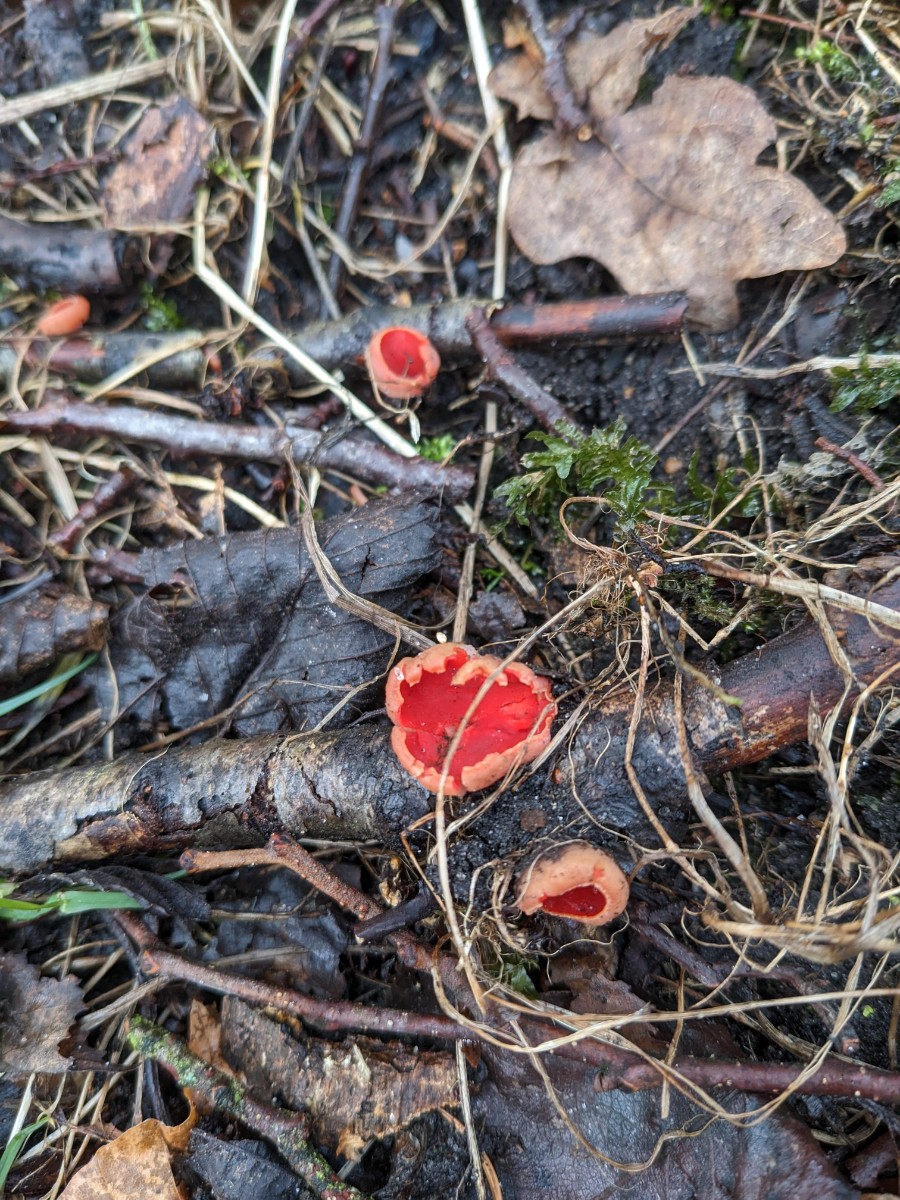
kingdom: Fungi
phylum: Ascomycota
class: Pezizomycetes
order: Pezizales
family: Sarcoscyphaceae
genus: Sarcoscypha
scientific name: Sarcoscypha austriaca
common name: krølhåret pragtbæger
